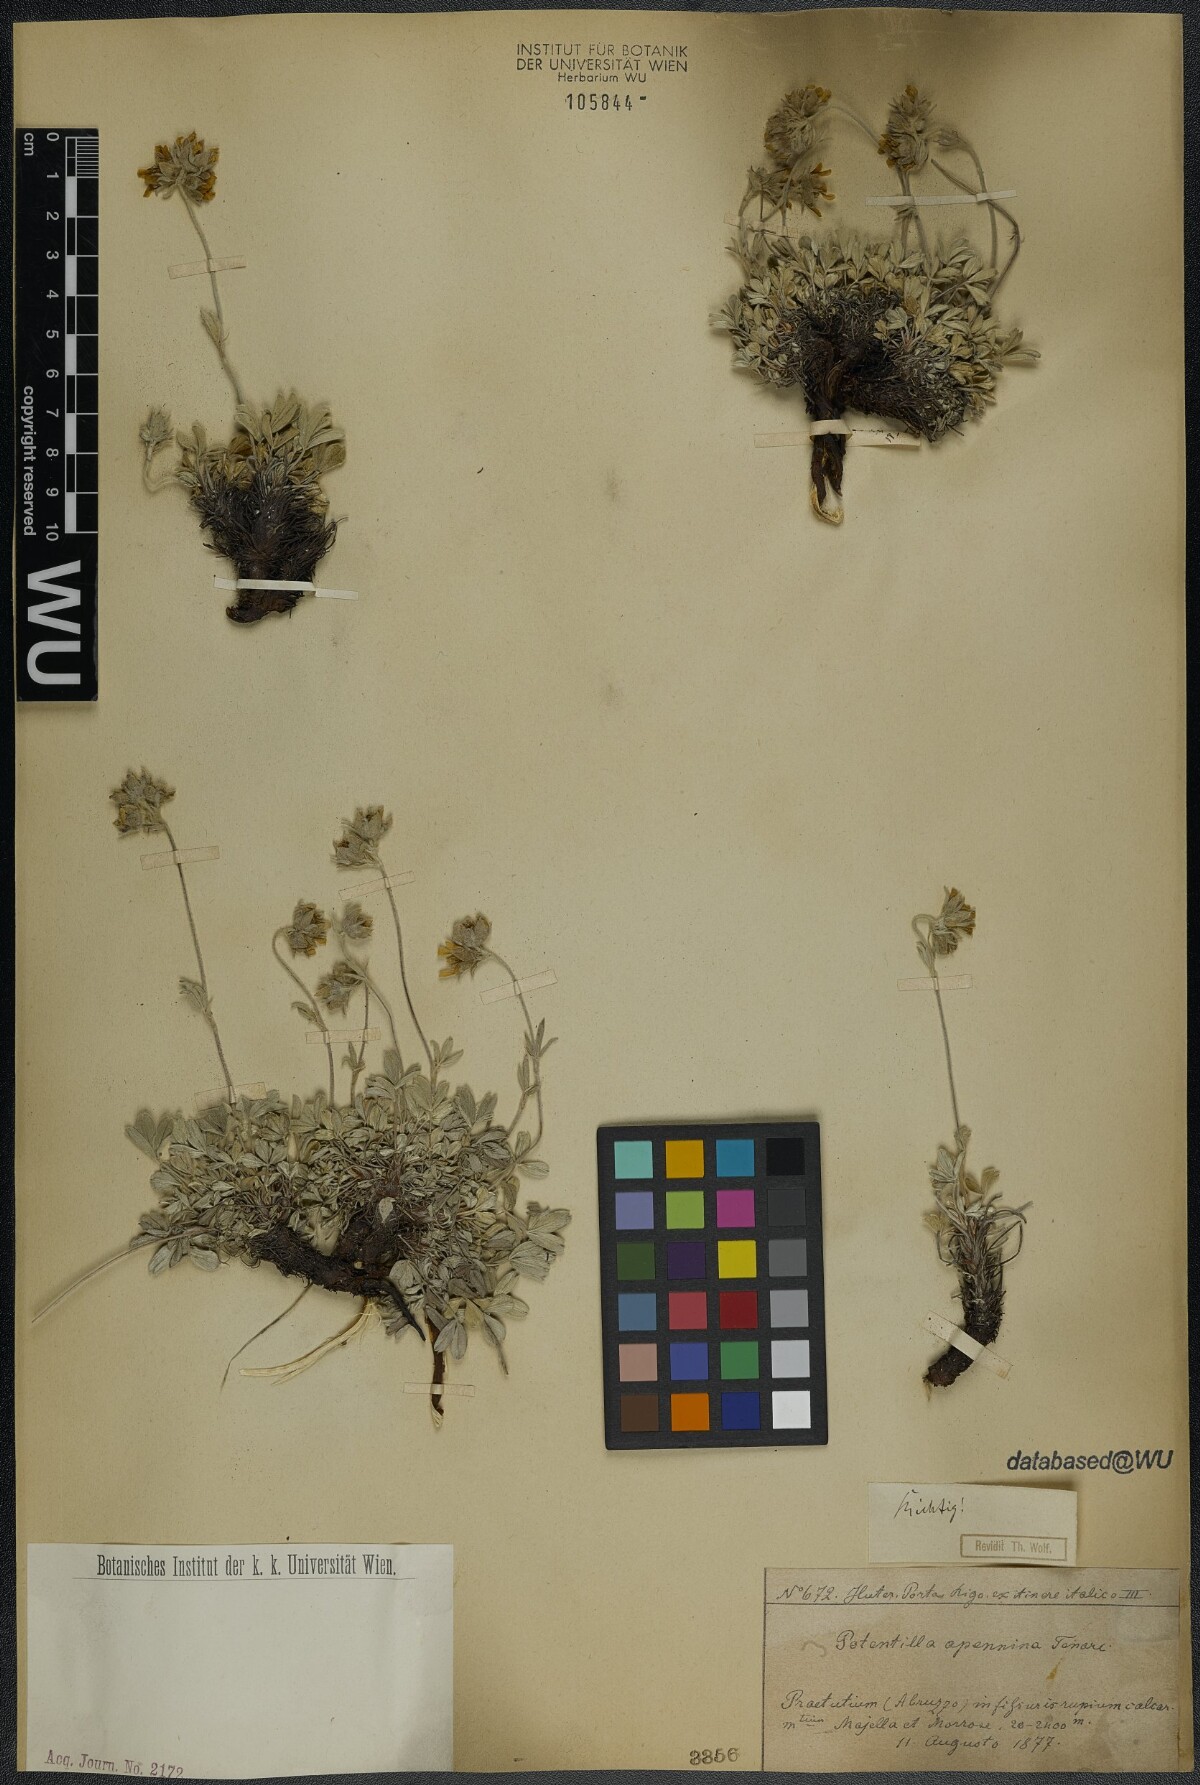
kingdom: Plantae
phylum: Tracheophyta
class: Magnoliopsida
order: Rosales
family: Rosaceae
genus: Potentilla
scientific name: Potentilla apennina
